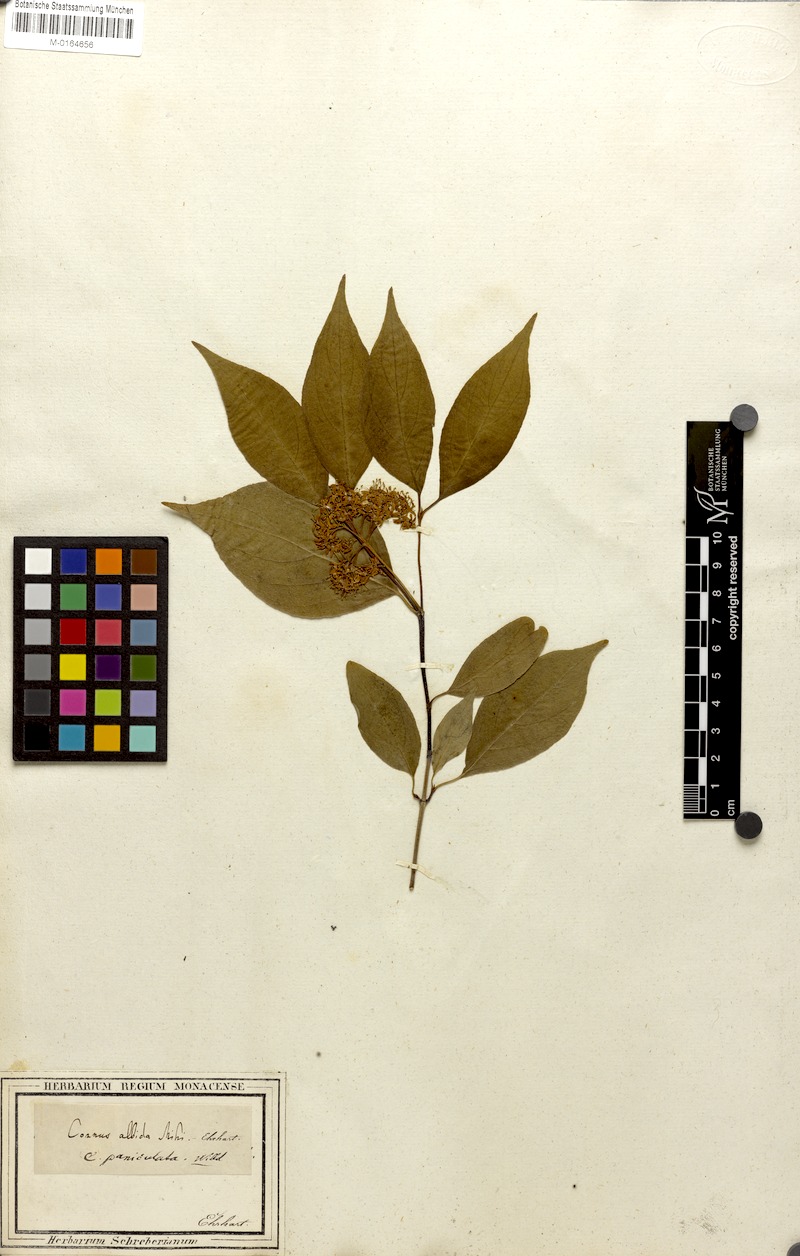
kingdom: Plantae
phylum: Tracheophyta
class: Magnoliopsida
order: Cornales
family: Cornaceae
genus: Cornus
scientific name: Cornus racemosa
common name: Panicled dogwood
